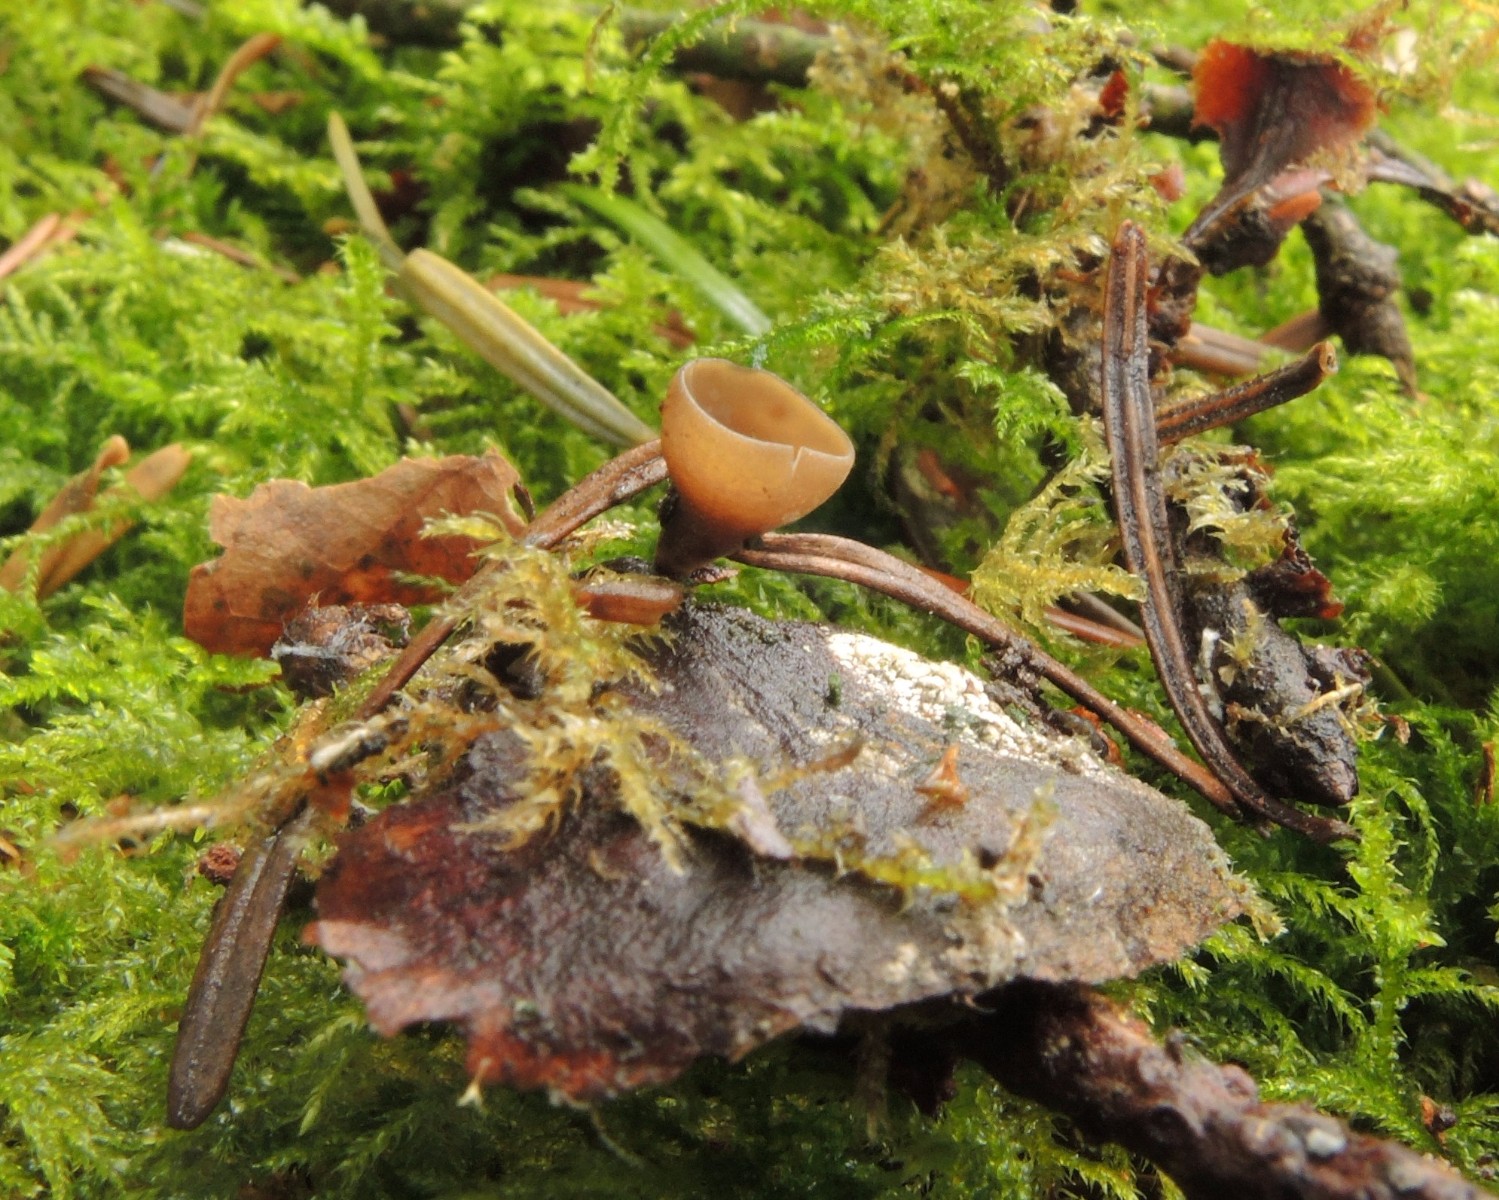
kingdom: Fungi
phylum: Ascomycota
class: Leotiomycetes
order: Helotiales
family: Sclerotiniaceae
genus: Ciboria
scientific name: Ciboria rufofusca
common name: kogleskæl-knoldskive
